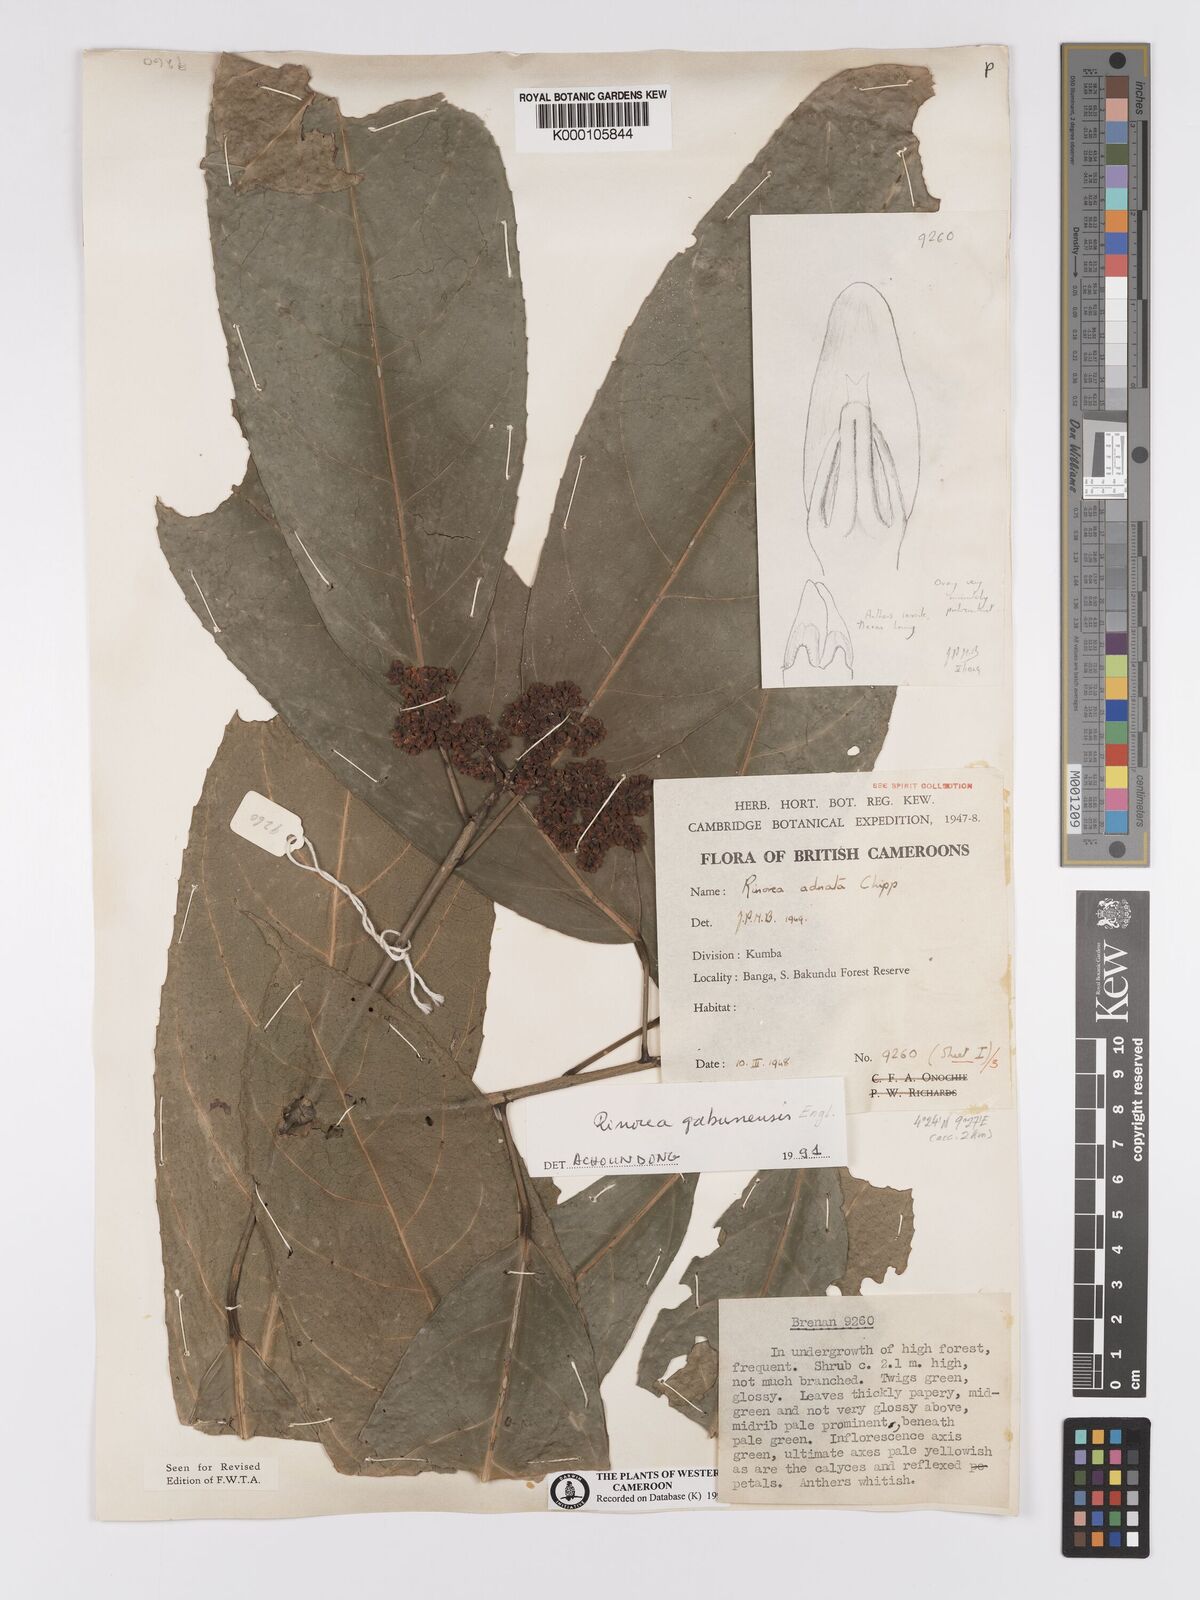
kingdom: Plantae
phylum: Tracheophyta
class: Magnoliopsida
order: Malpighiales
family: Violaceae
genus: Rinorea
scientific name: Rinorea gabunensis
